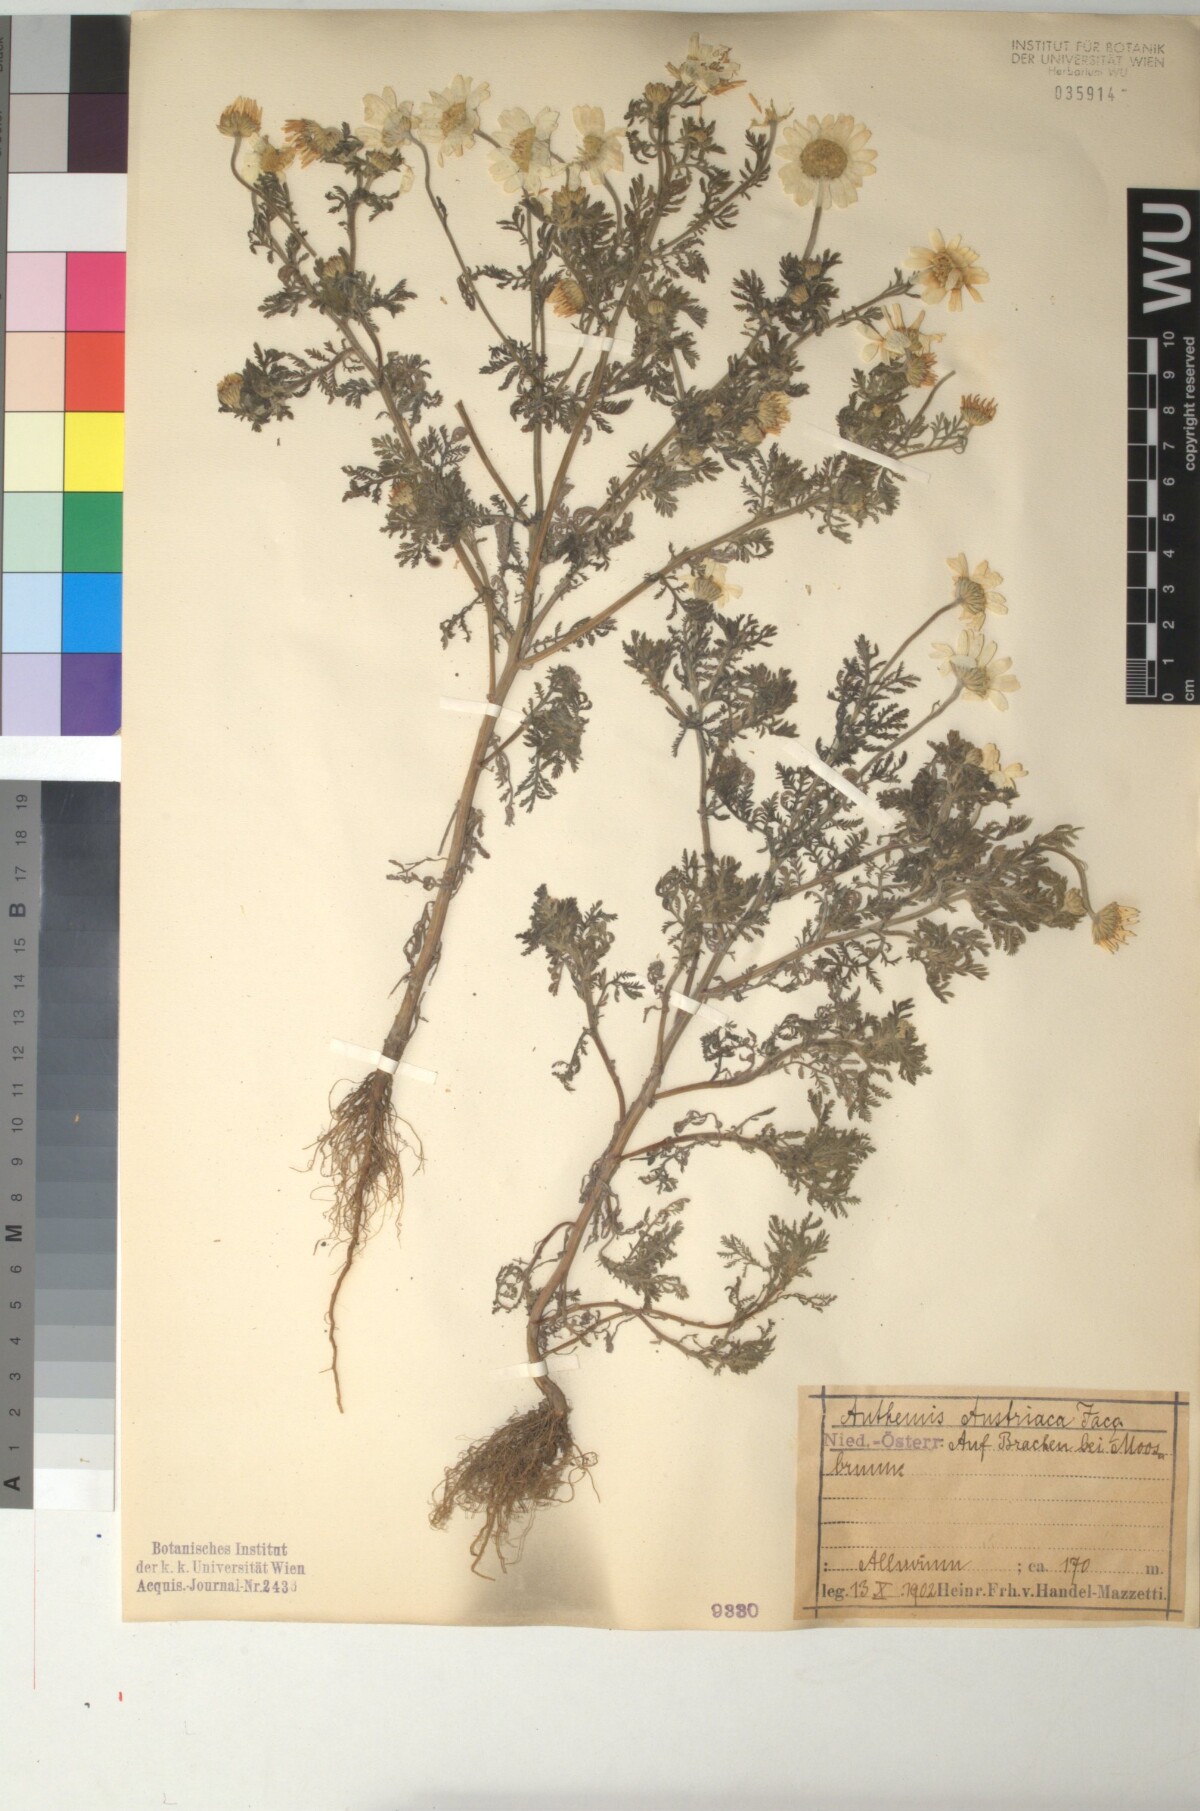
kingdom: Plantae
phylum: Tracheophyta
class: Magnoliopsida
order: Asterales
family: Asteraceae
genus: Cota
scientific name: Cota austriaca
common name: Austrian chamomile
